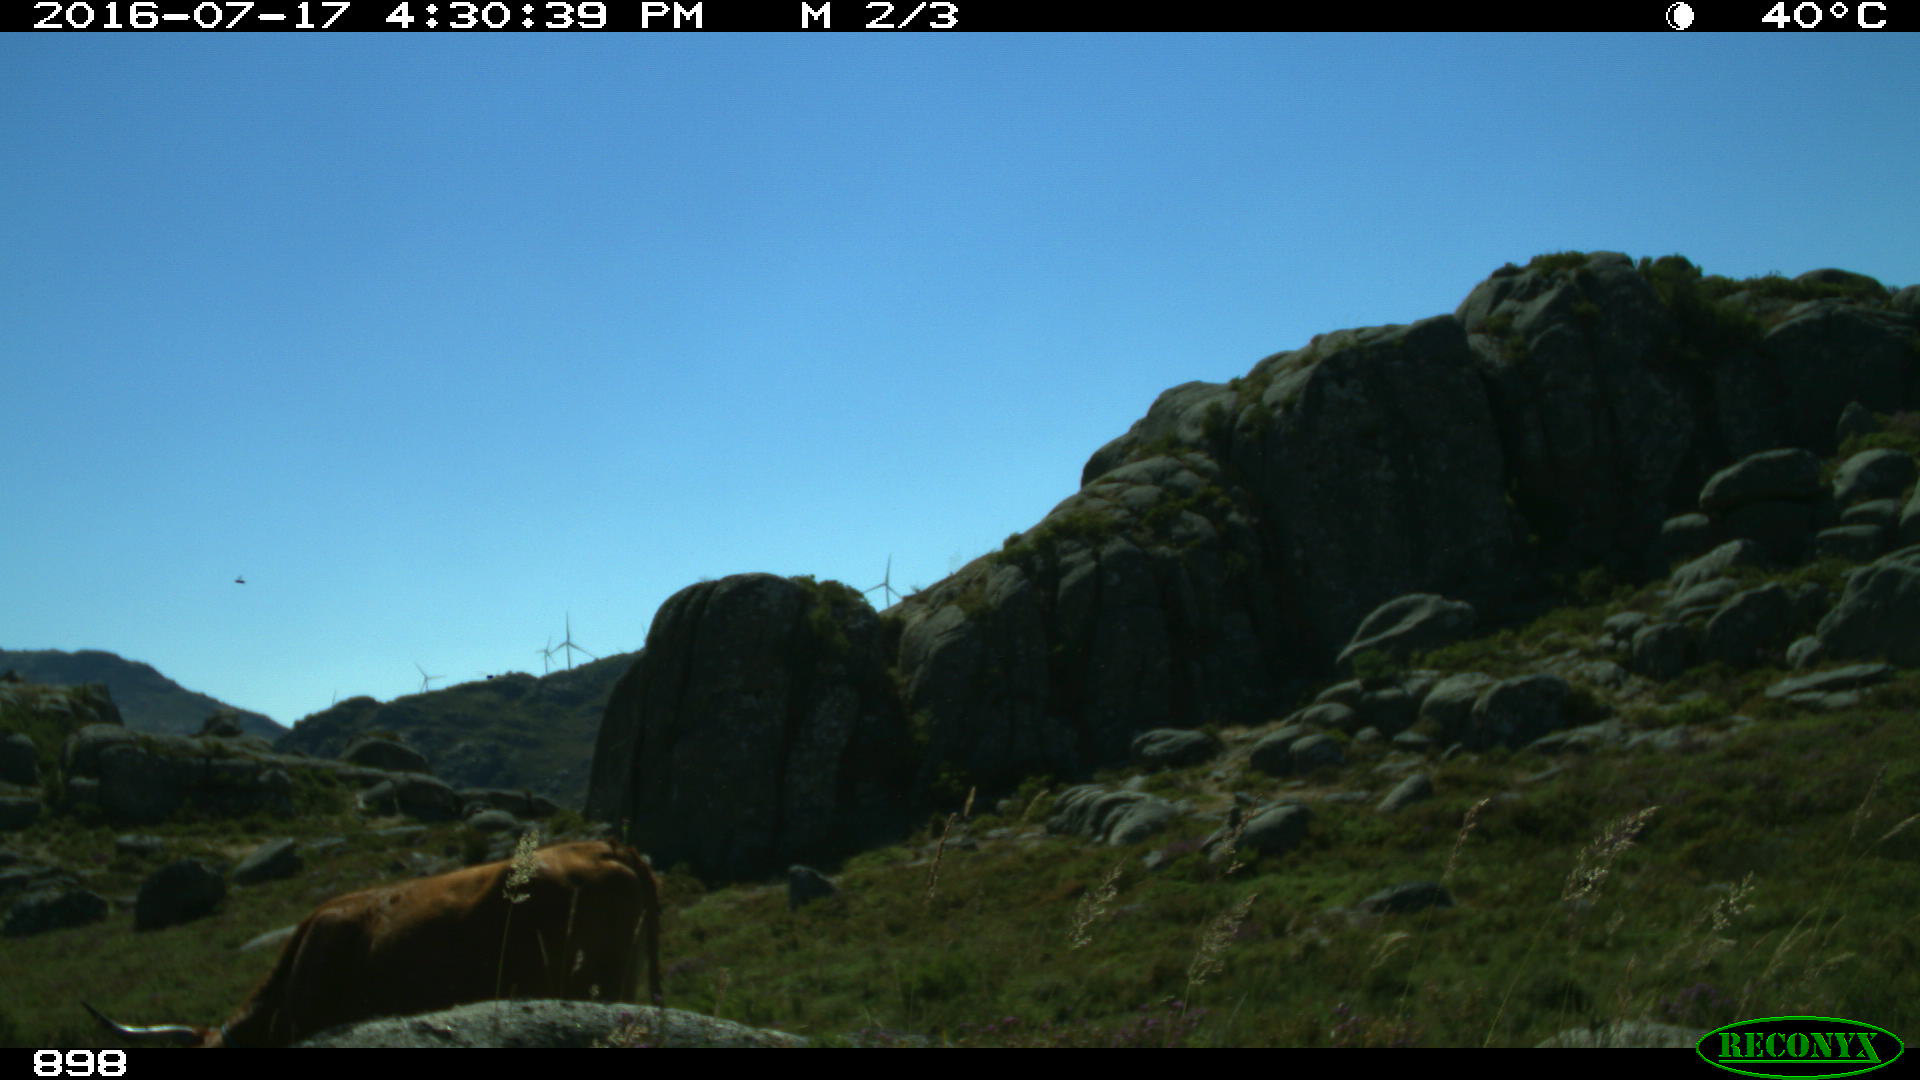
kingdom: Animalia
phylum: Chordata
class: Mammalia
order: Artiodactyla
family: Bovidae
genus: Bos
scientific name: Bos taurus
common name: Domesticated cattle
